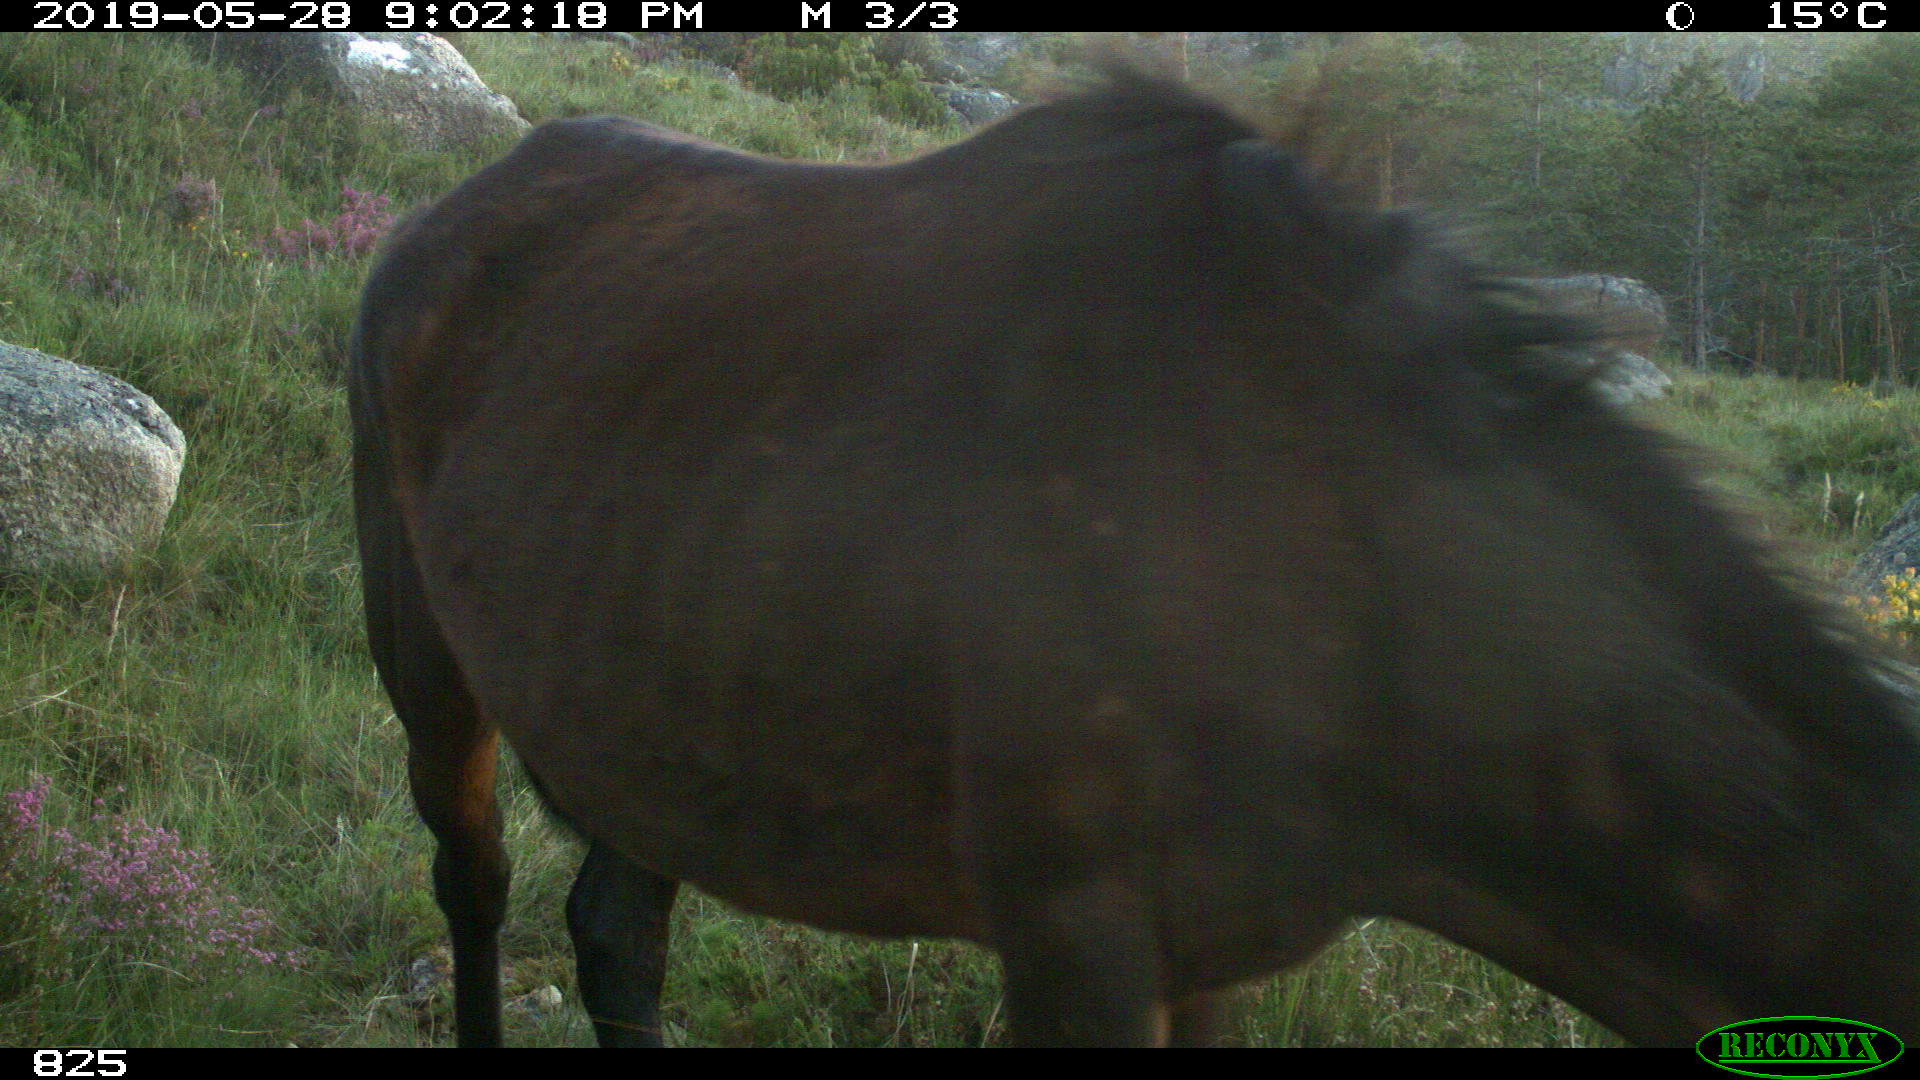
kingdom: Animalia
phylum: Chordata
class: Mammalia
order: Perissodactyla
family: Equidae
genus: Equus
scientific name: Equus caballus
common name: Horse
